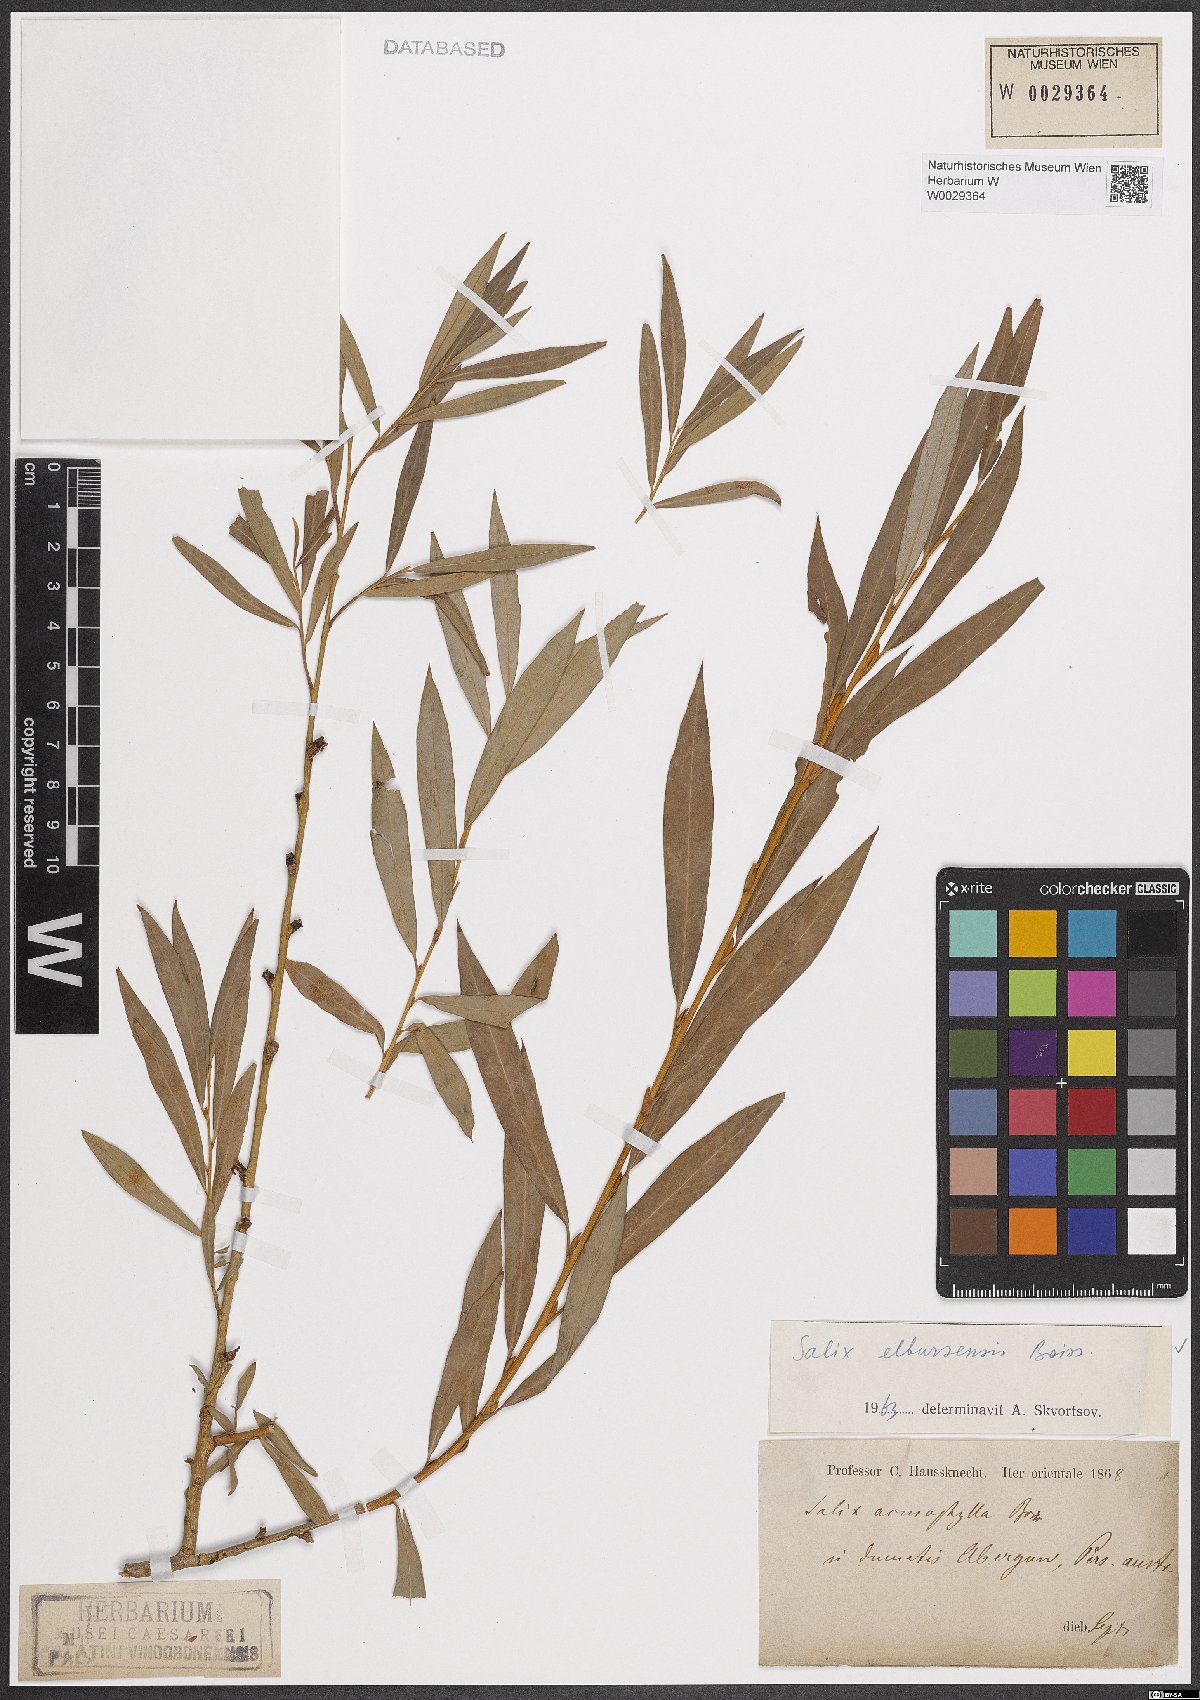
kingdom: Plantae
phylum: Tracheophyta
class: Magnoliopsida
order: Malpighiales
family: Salicaceae
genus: Salix
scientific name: Salix elbursensis
